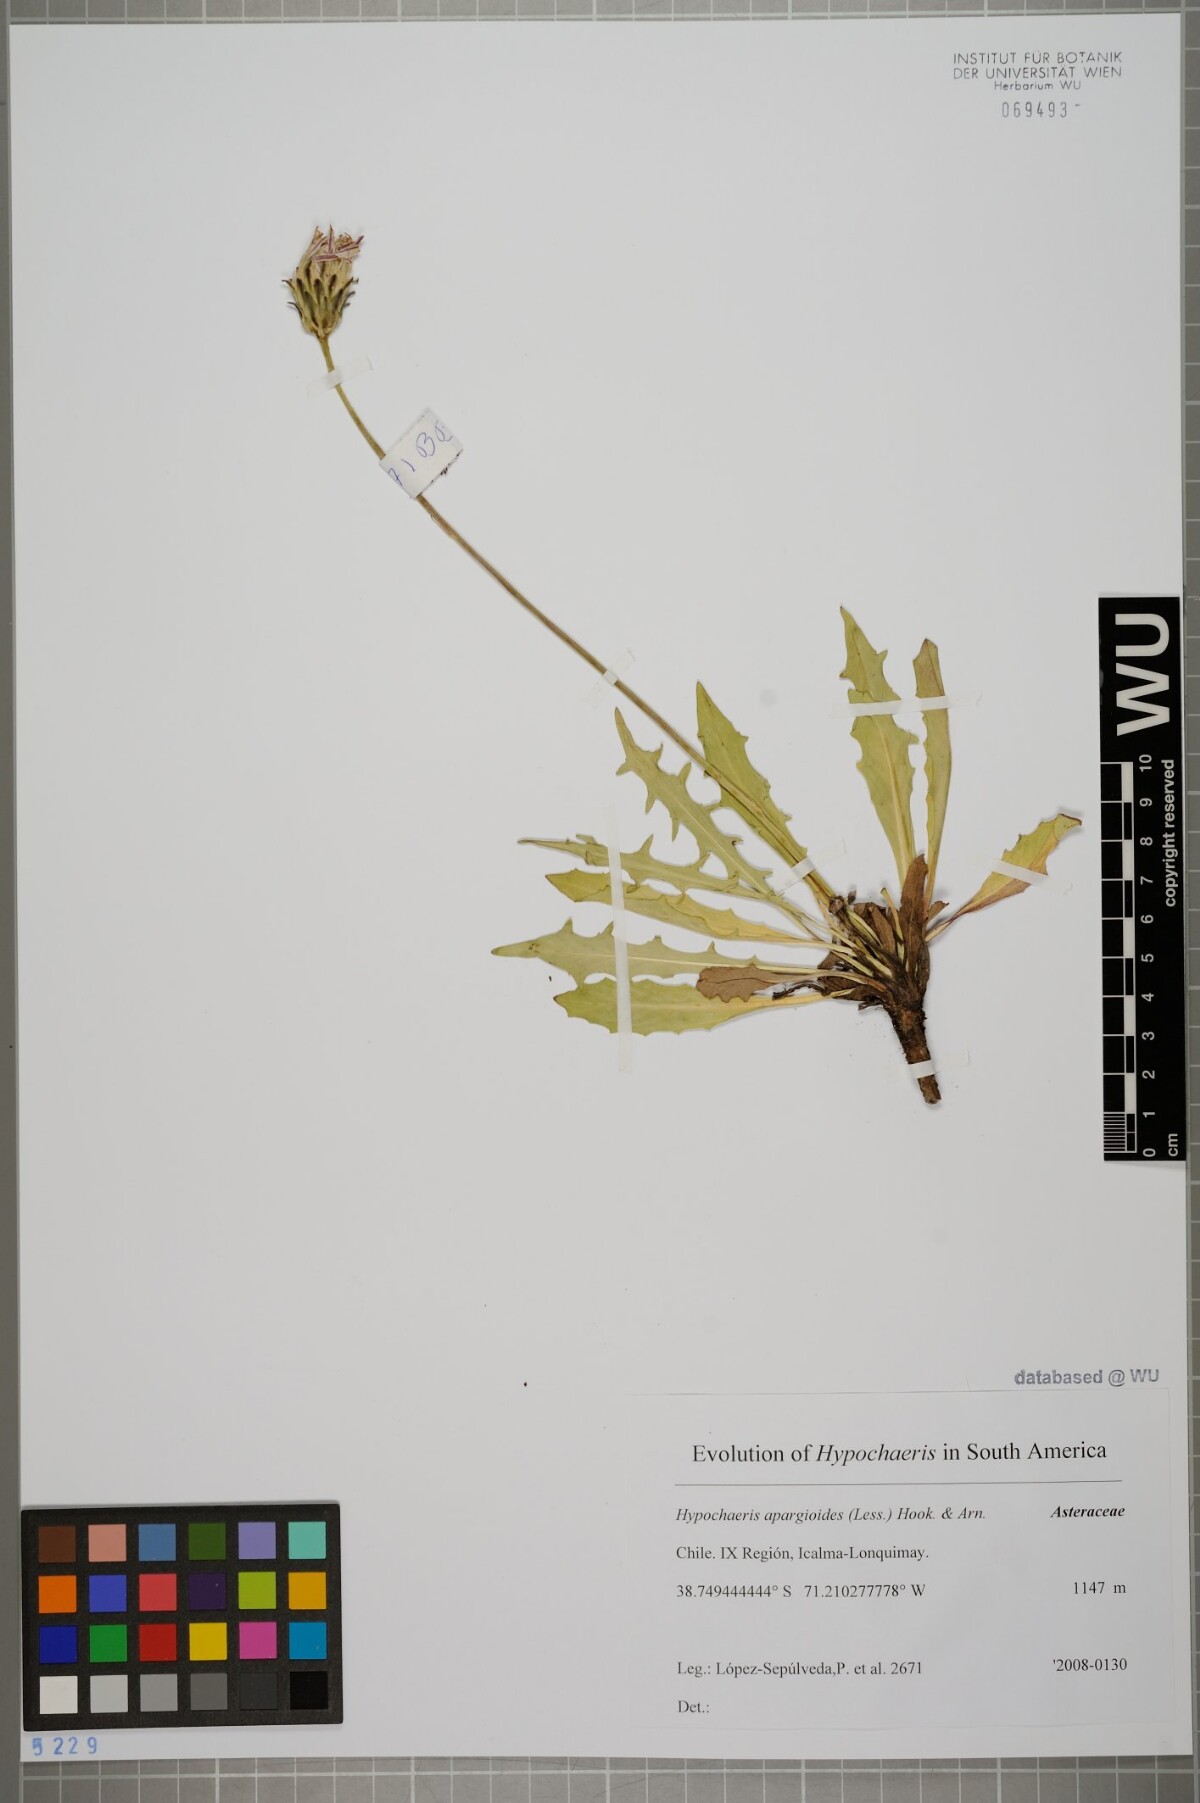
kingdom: Plantae
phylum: Tracheophyta
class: Magnoliopsida
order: Asterales
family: Asteraceae
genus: Hypochaeris
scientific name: Hypochaeris apargioides
